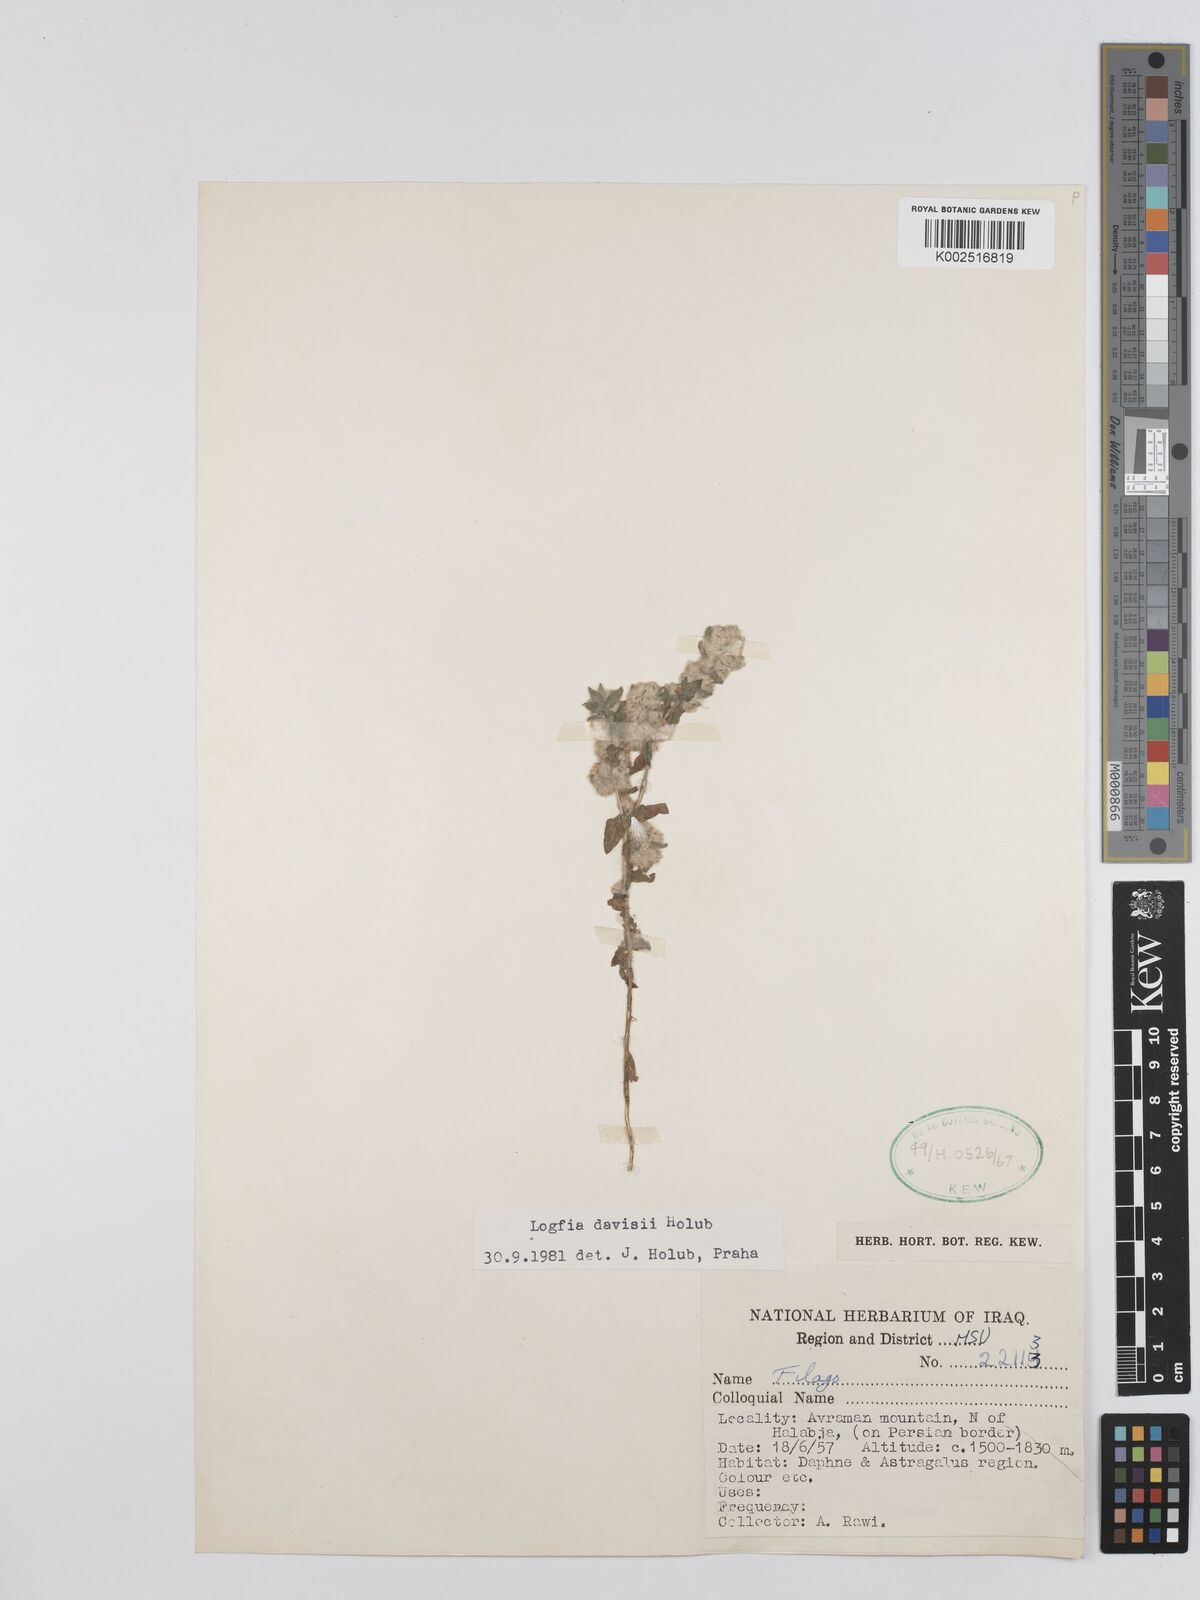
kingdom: Plantae
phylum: Tracheophyta
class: Magnoliopsida
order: Asterales
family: Asteraceae
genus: Filago
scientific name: Filago arvensis
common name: Field cudweed
